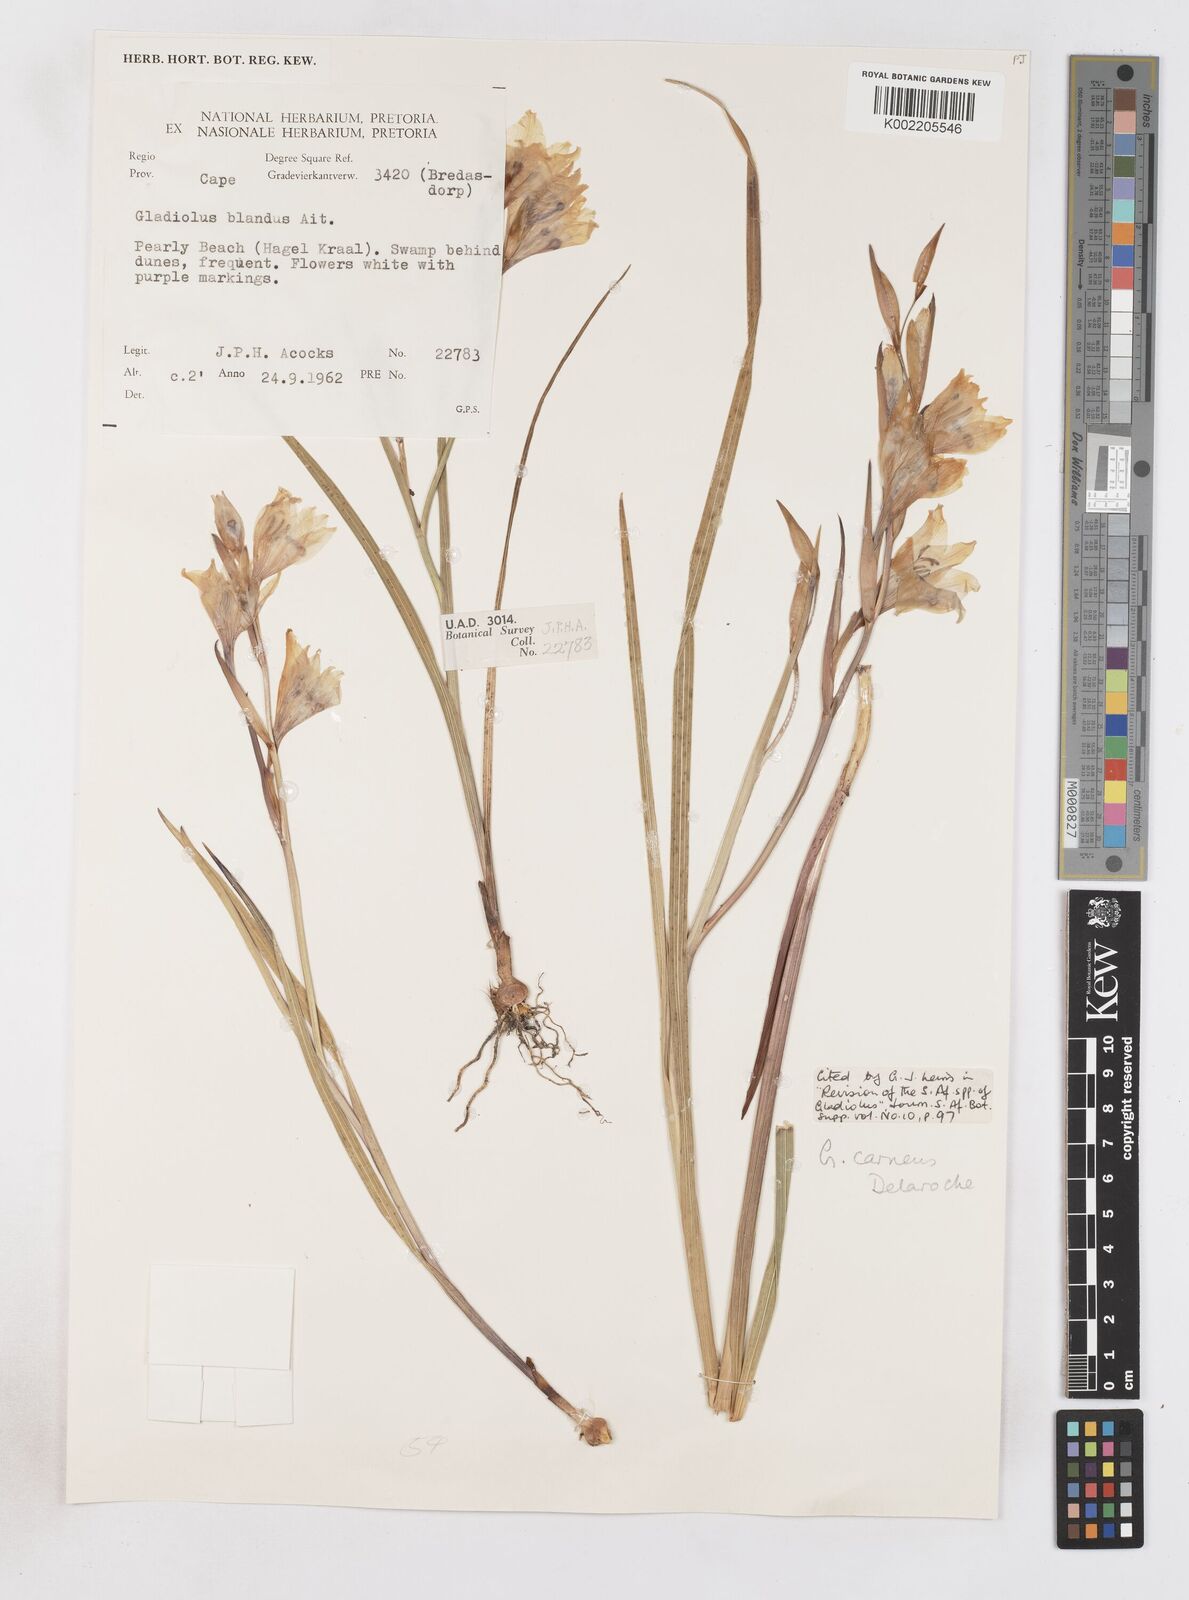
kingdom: Plantae
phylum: Tracheophyta
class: Liliopsida
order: Asparagales
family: Iridaceae
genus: Gladiolus
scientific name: Gladiolus carneus
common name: Painted-lady
